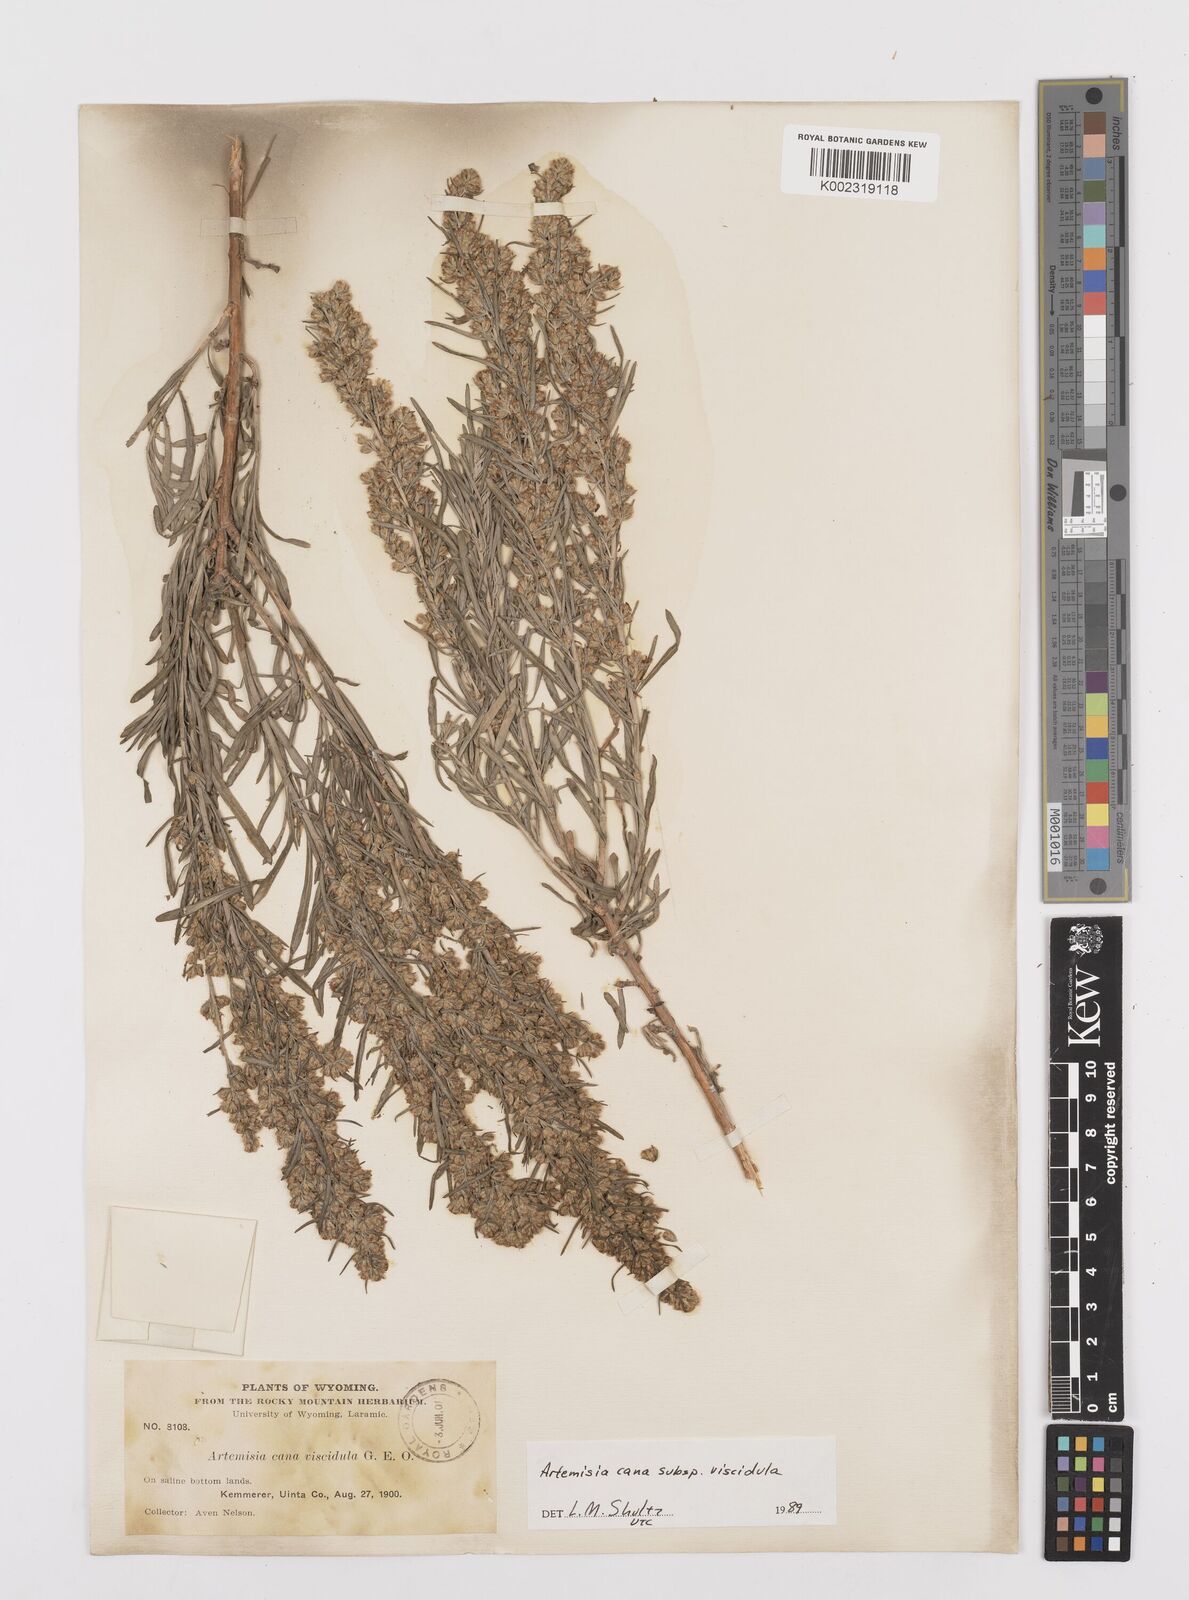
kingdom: Plantae
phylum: Tracheophyta
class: Magnoliopsida
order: Asterales
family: Asteraceae
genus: Artemisia
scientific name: Artemisia cana
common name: Silver sagebrush
